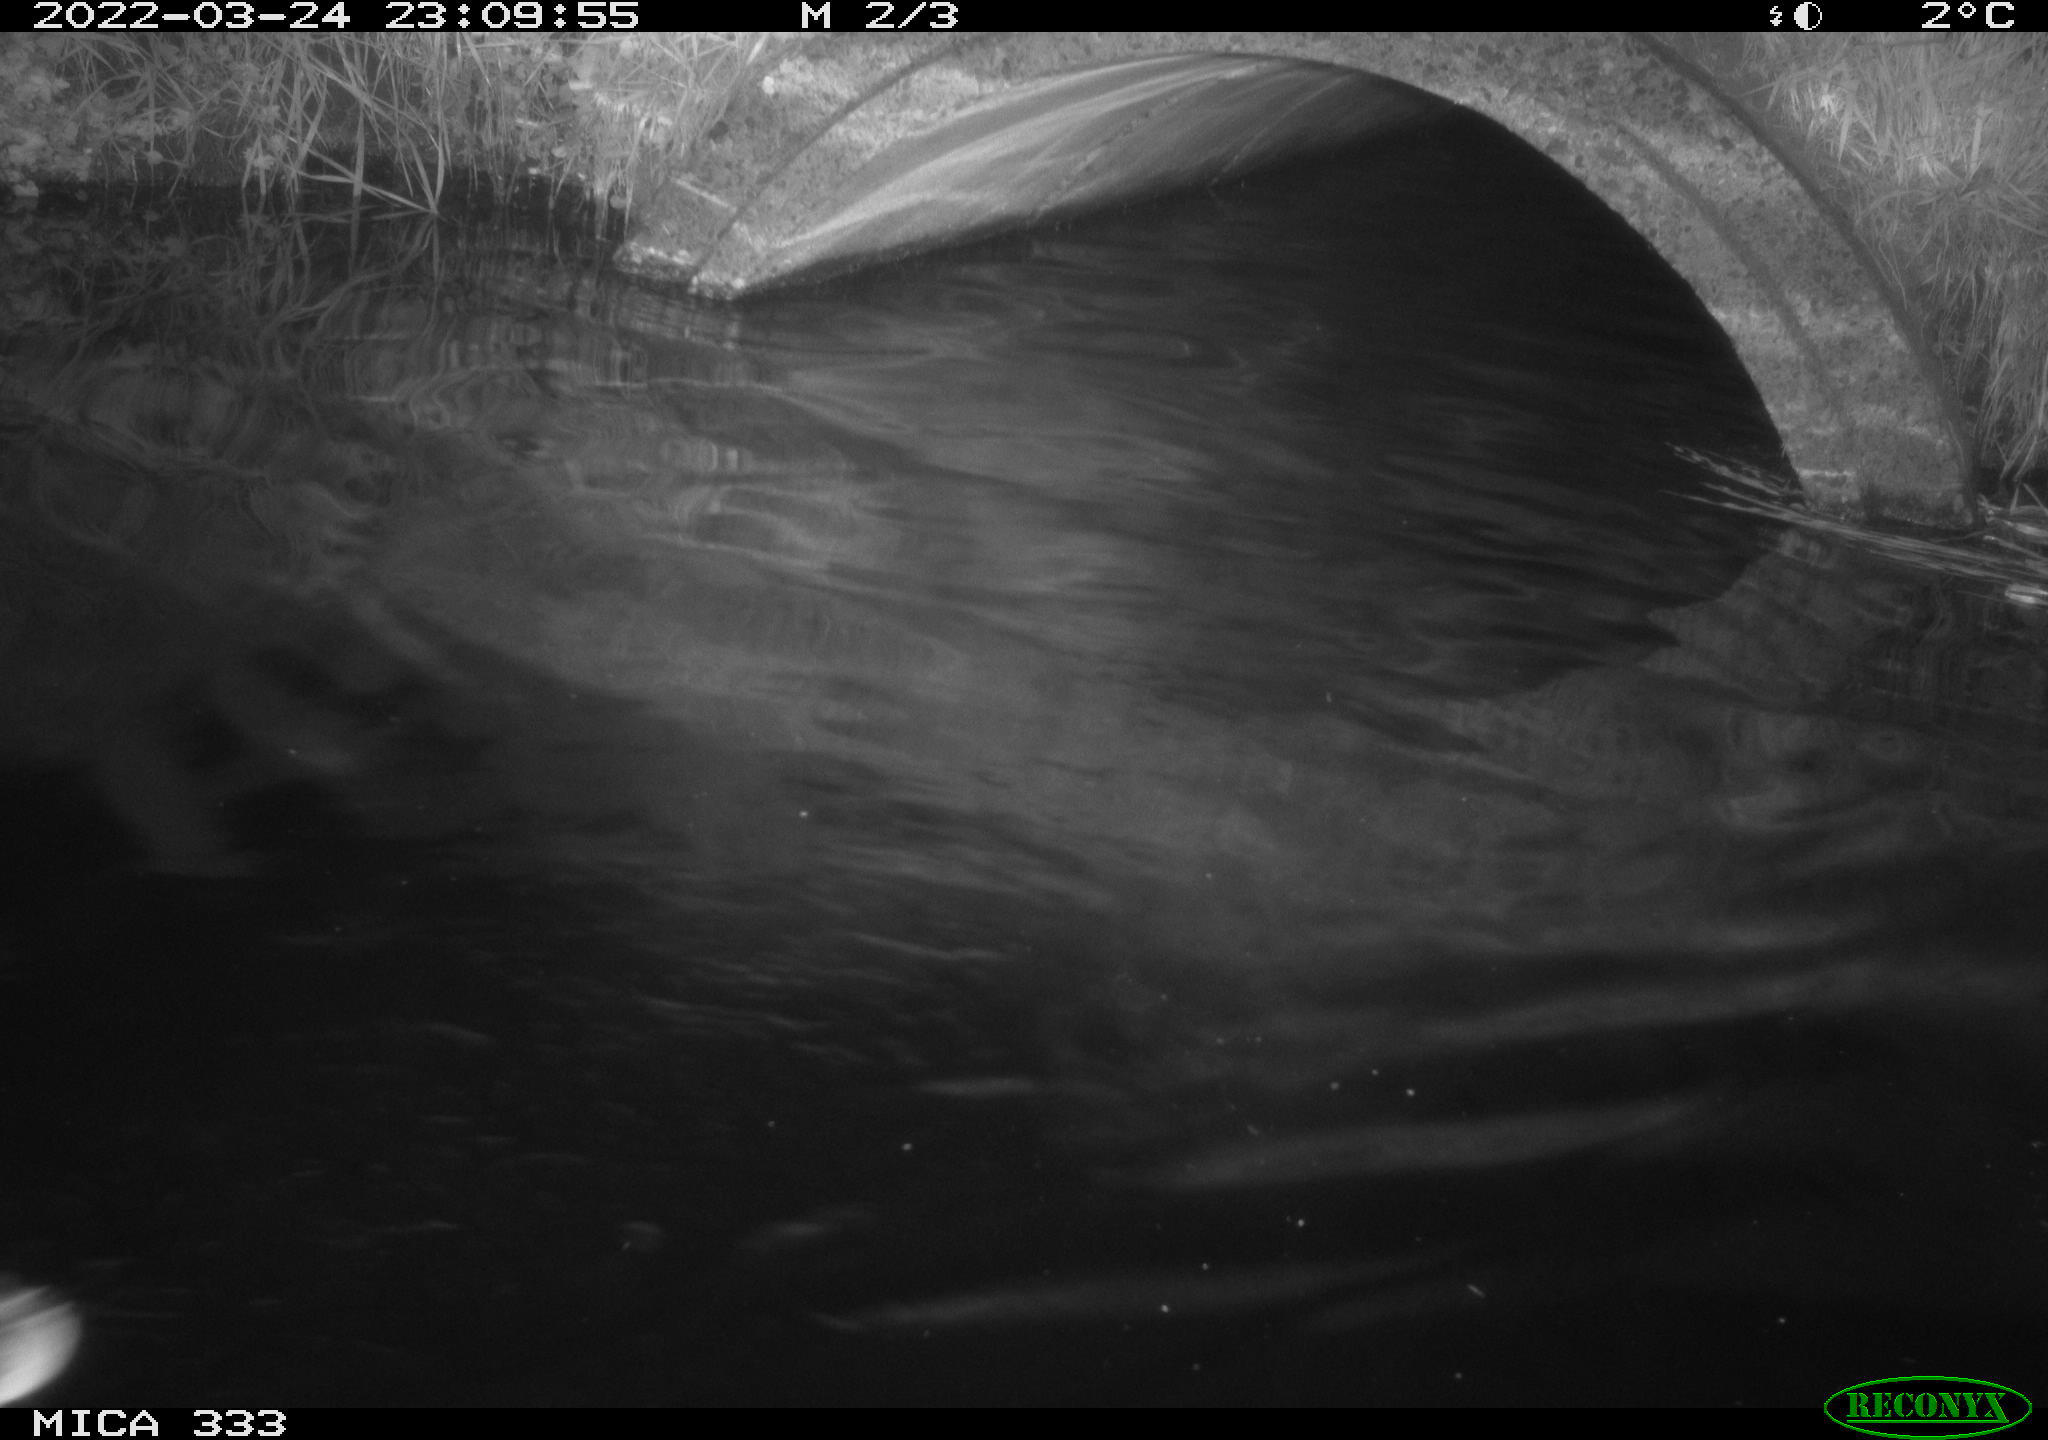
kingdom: Animalia
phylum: Chordata
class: Aves
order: Anseriformes
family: Anatidae
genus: Anas
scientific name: Anas platyrhynchos
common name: Mallard
